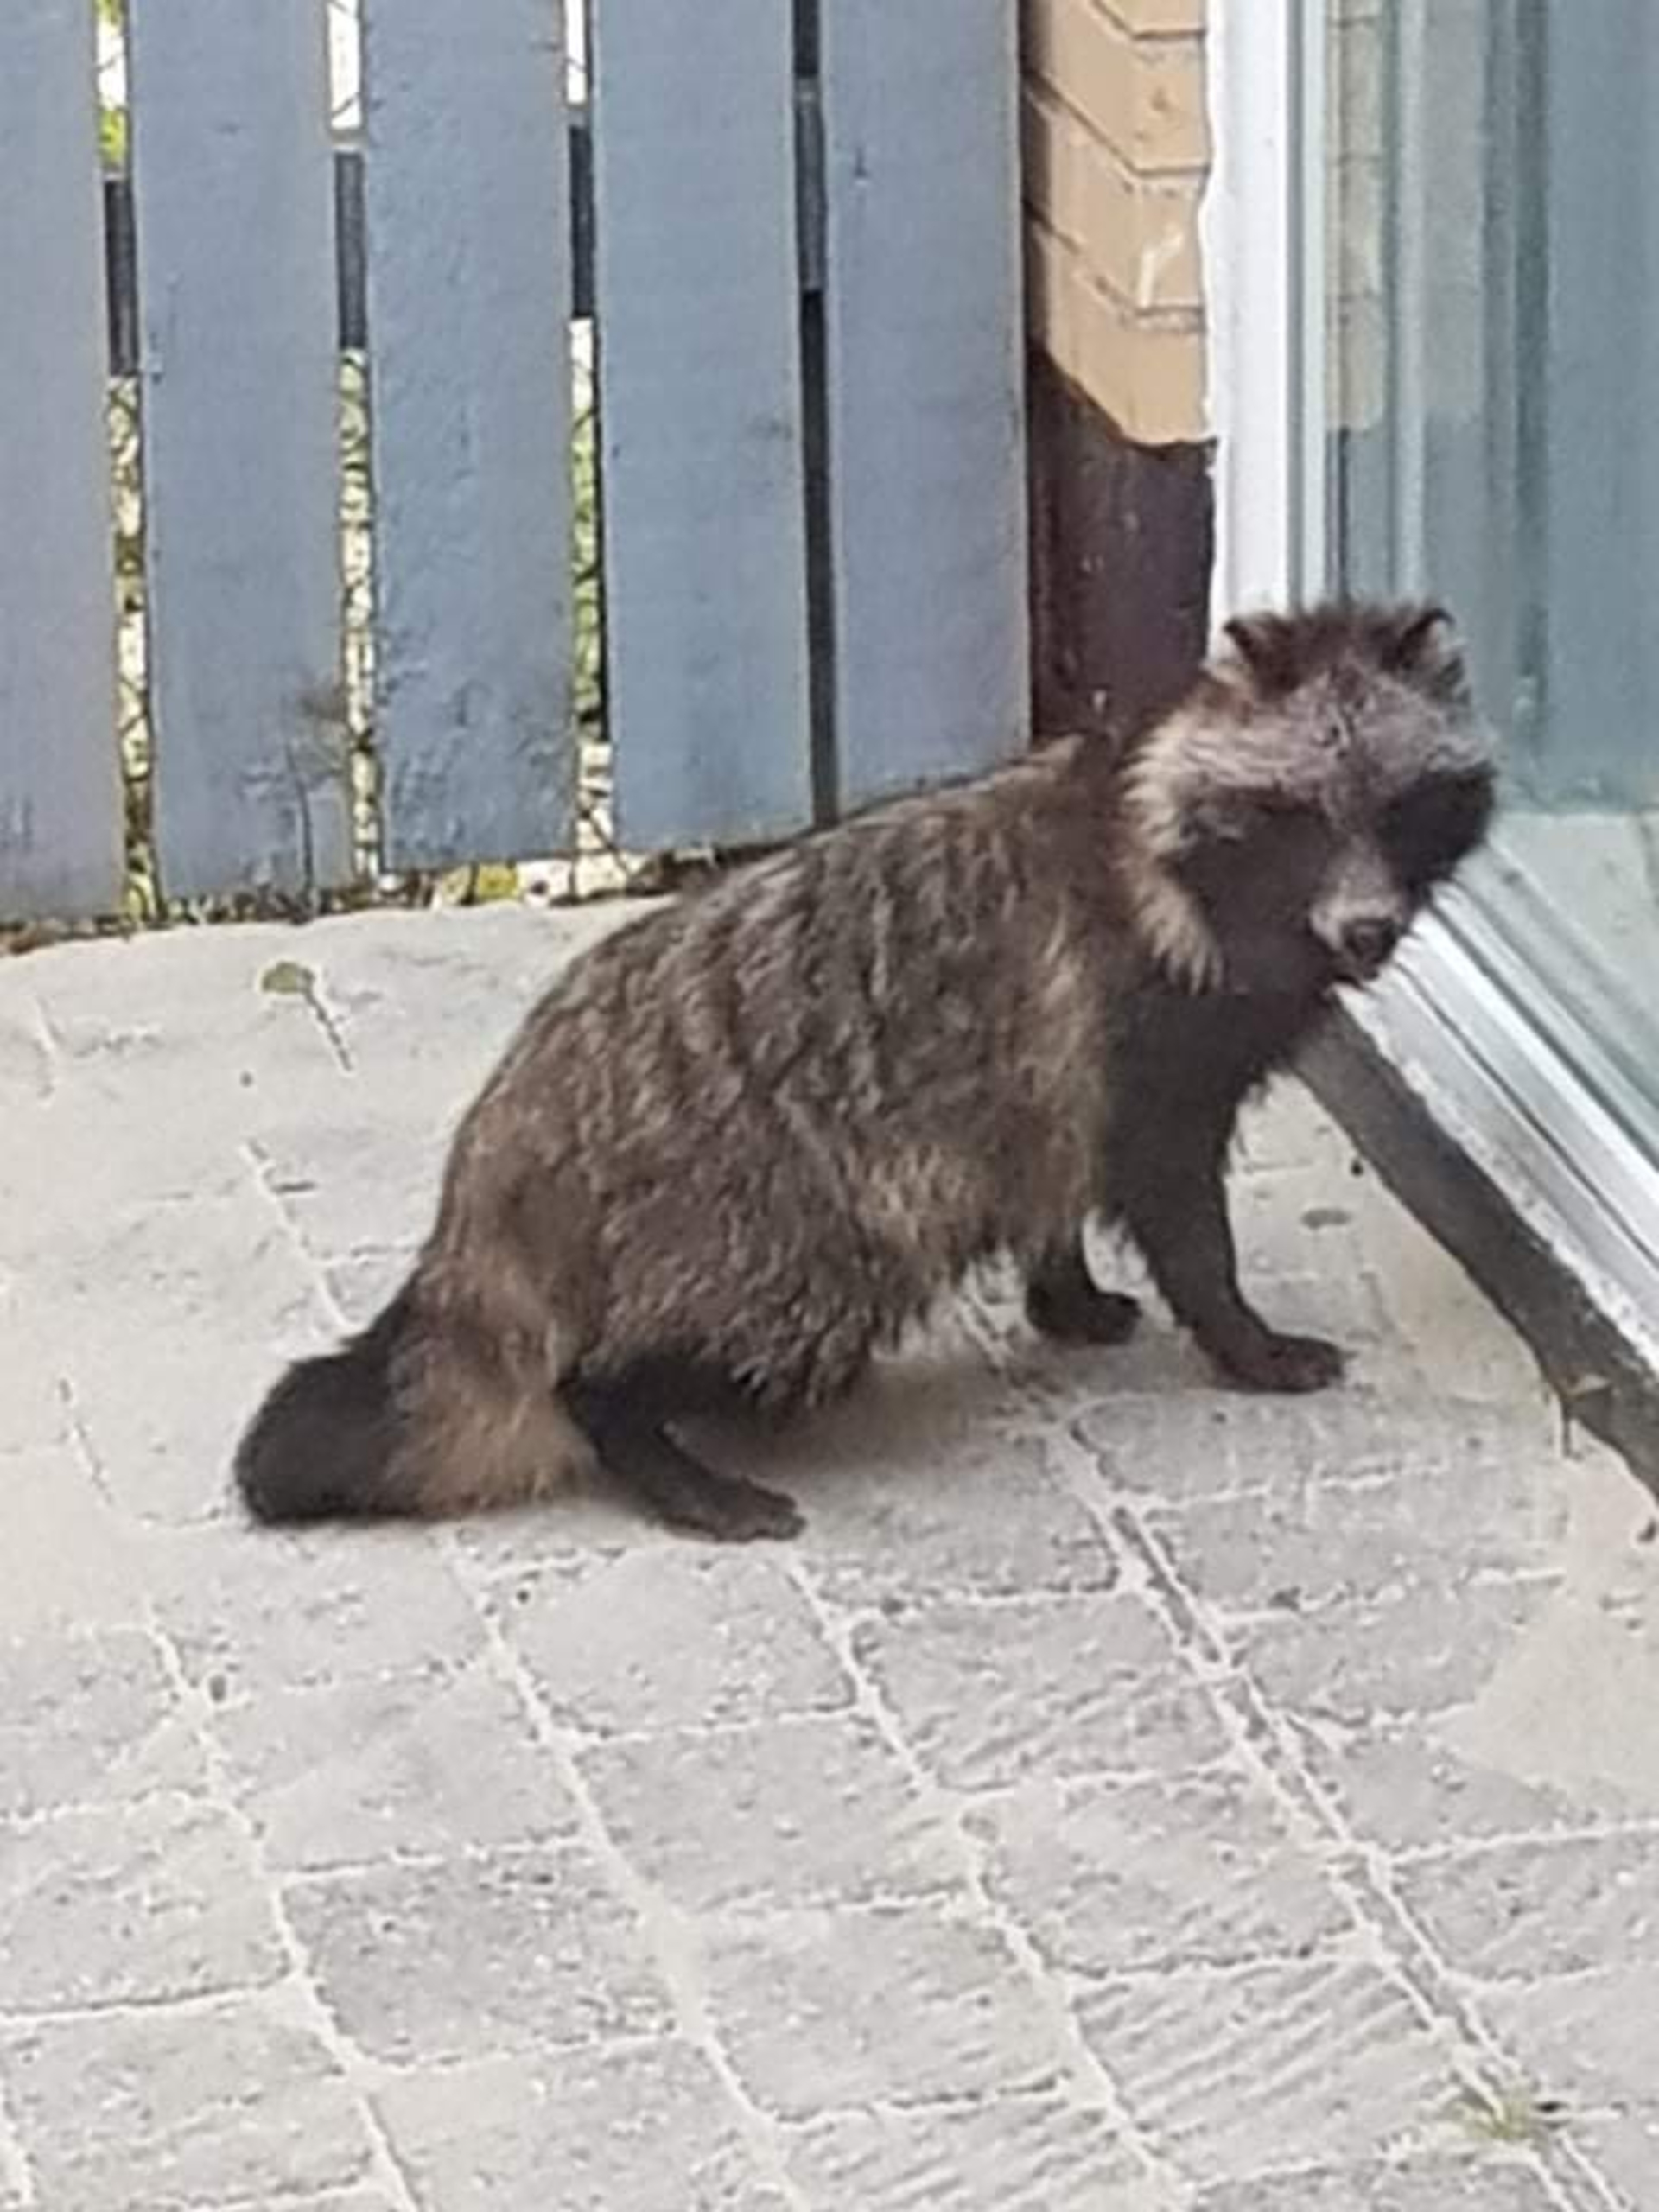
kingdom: Animalia
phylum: Chordata
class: Mammalia
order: Carnivora
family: Canidae
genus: Nyctereutes
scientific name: Nyctereutes procyonoides
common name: Mårhund
